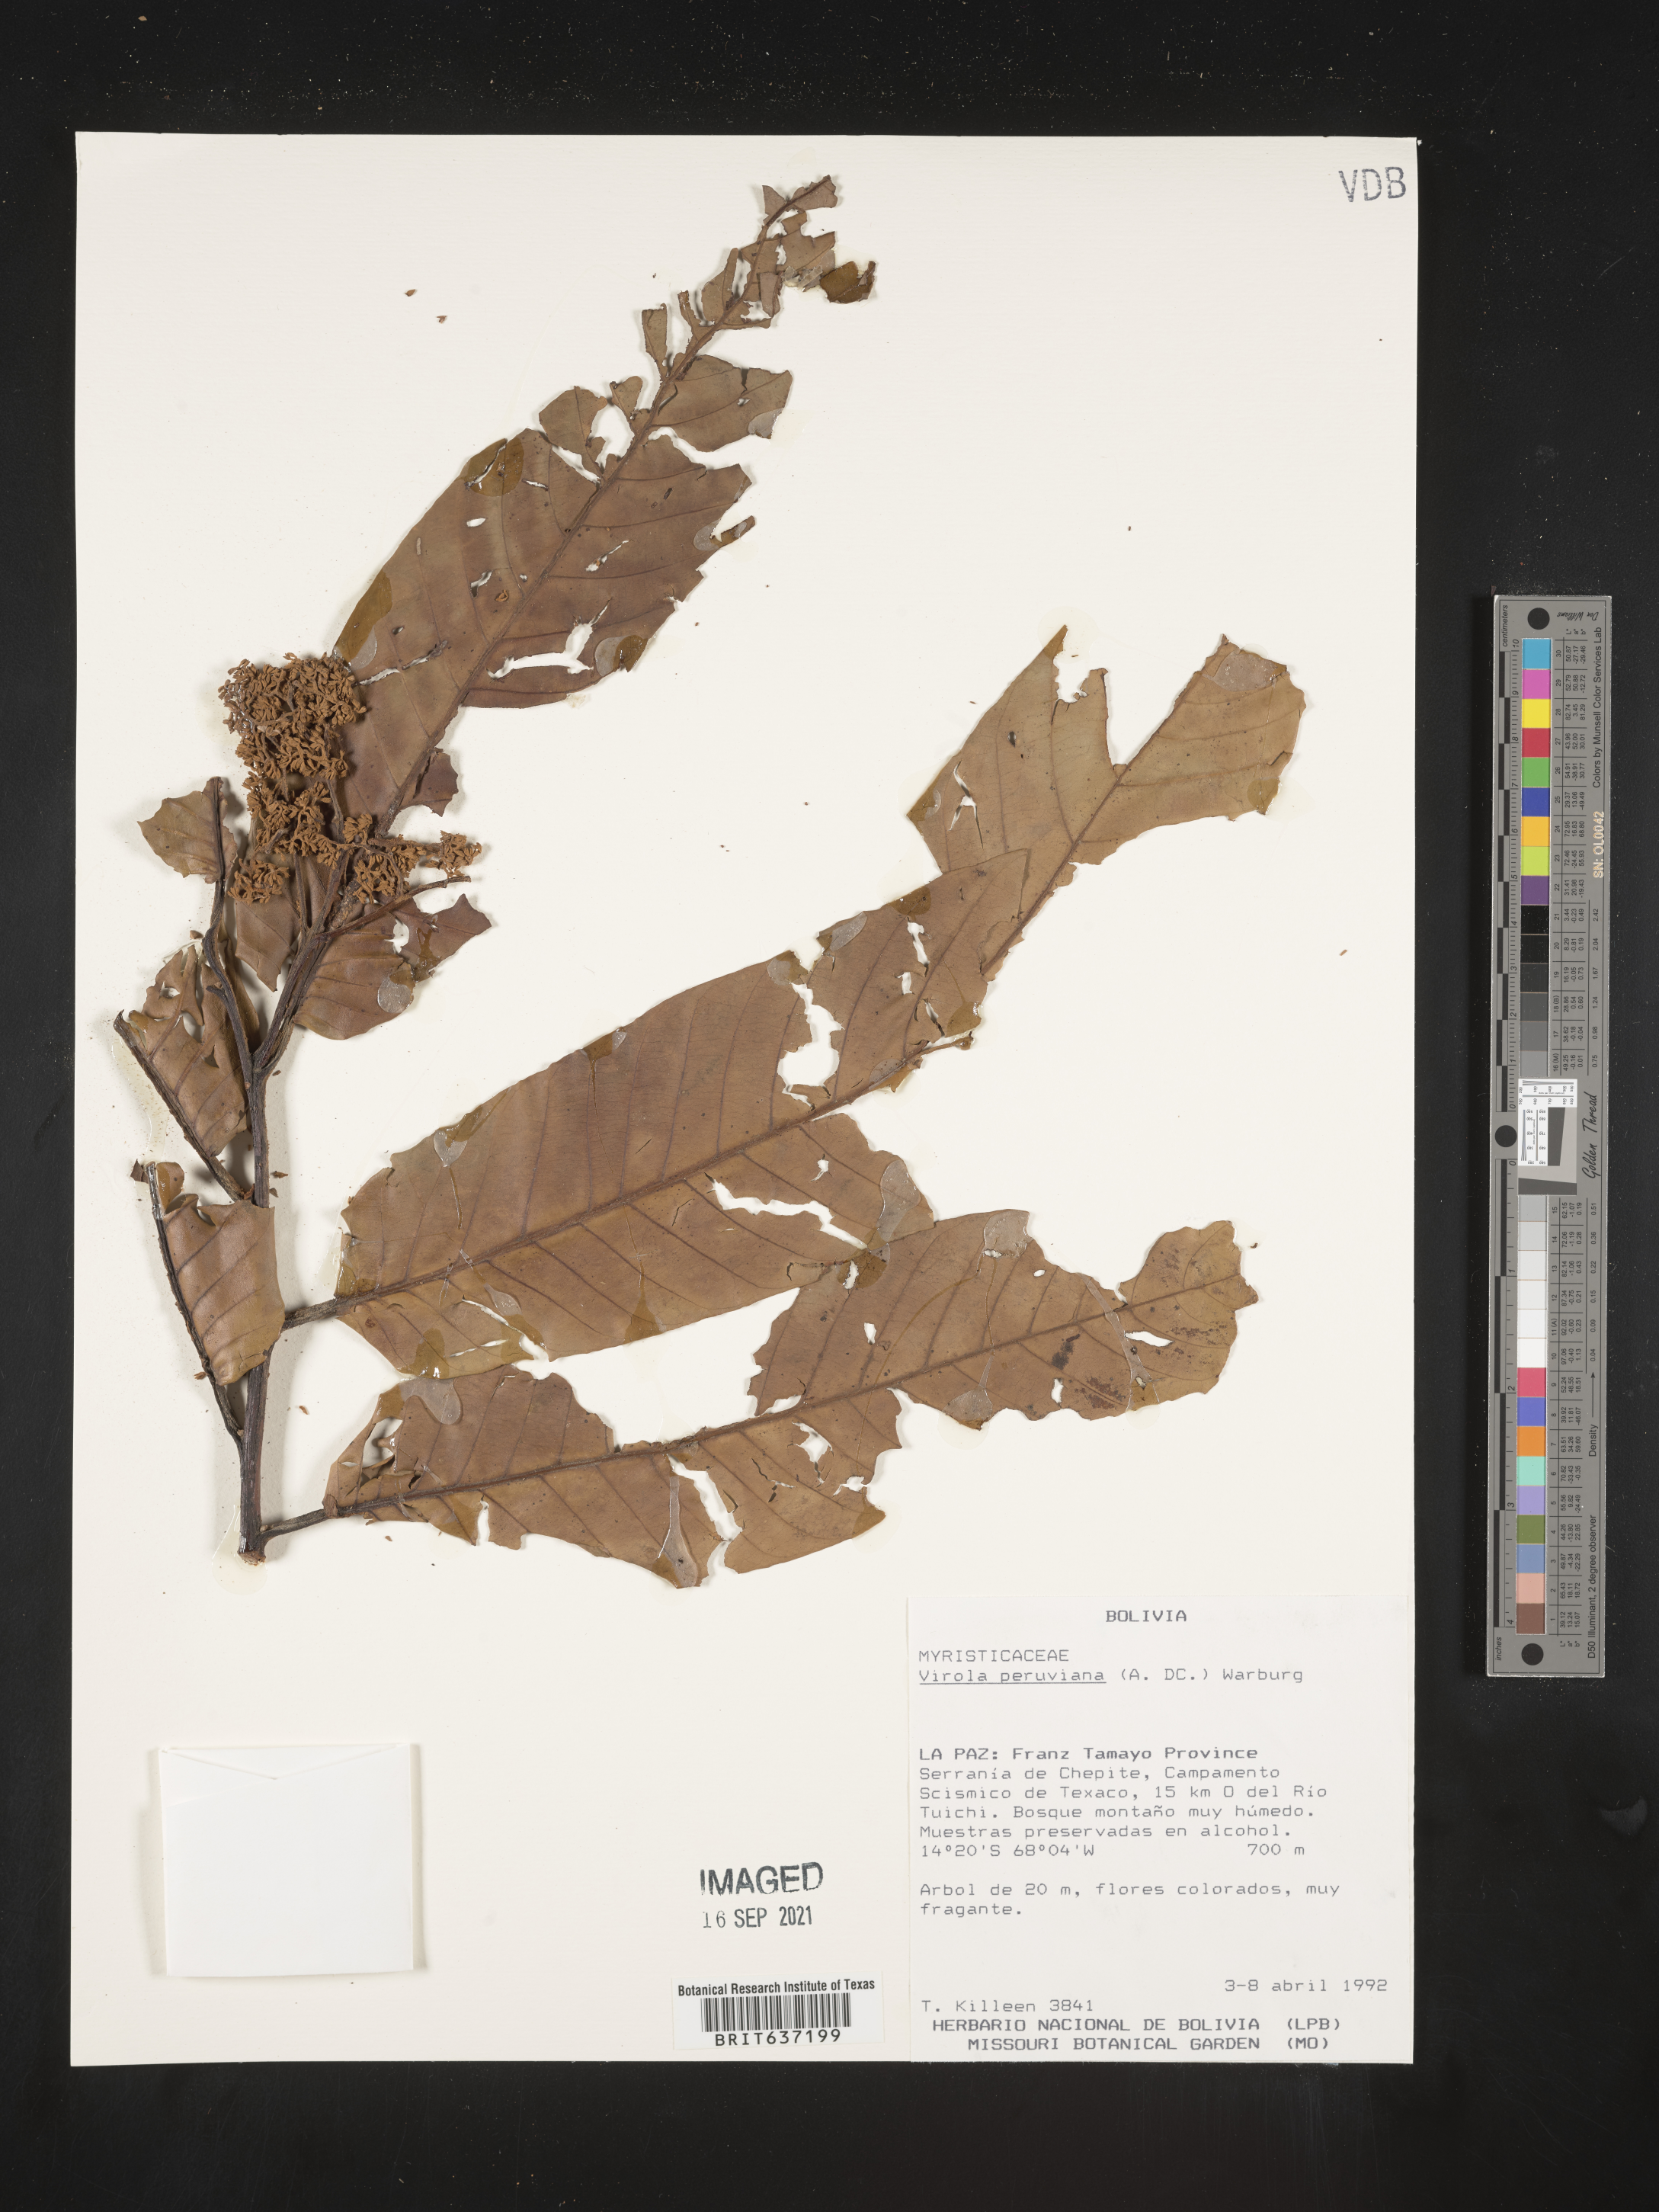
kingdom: Plantae
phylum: Tracheophyta
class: Magnoliopsida
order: Magnoliales
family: Myristicaceae
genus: Virola
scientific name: Virola
